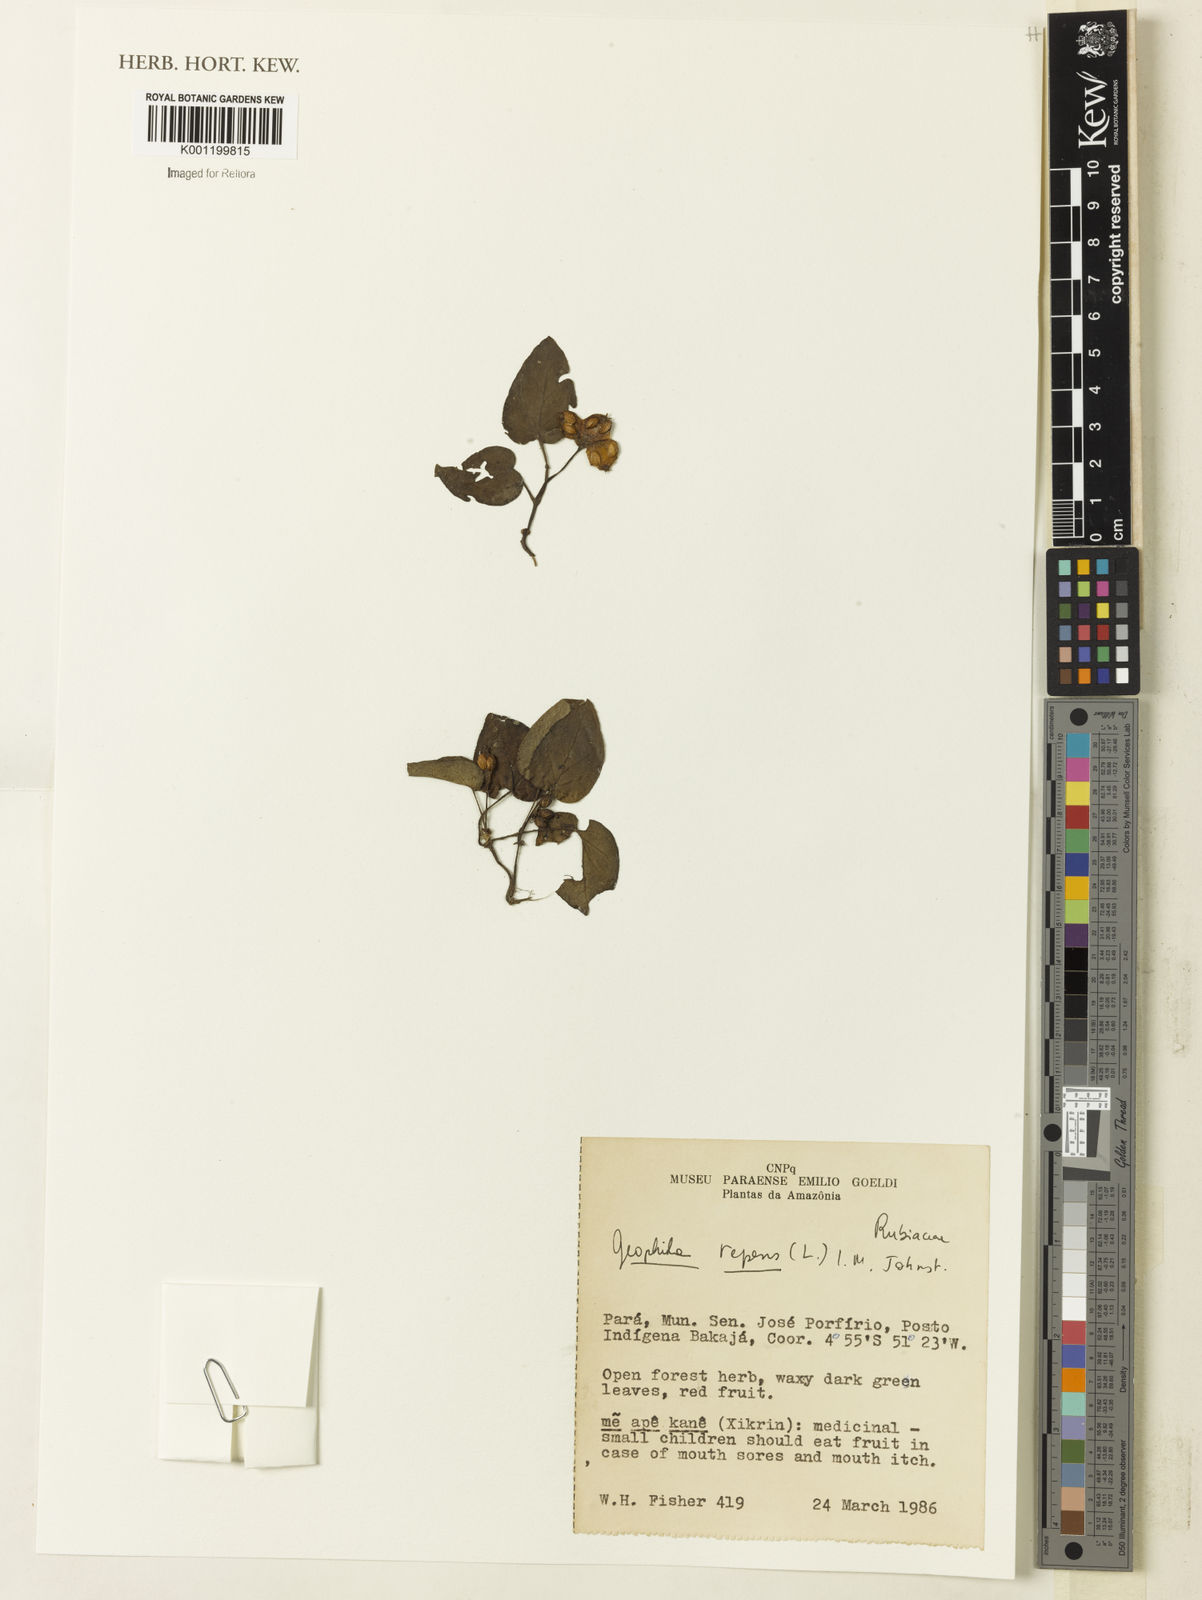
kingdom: Plantae
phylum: Tracheophyta
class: Magnoliopsida
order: Gentianales
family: Rubiaceae
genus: Geophila
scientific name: Geophila repens
